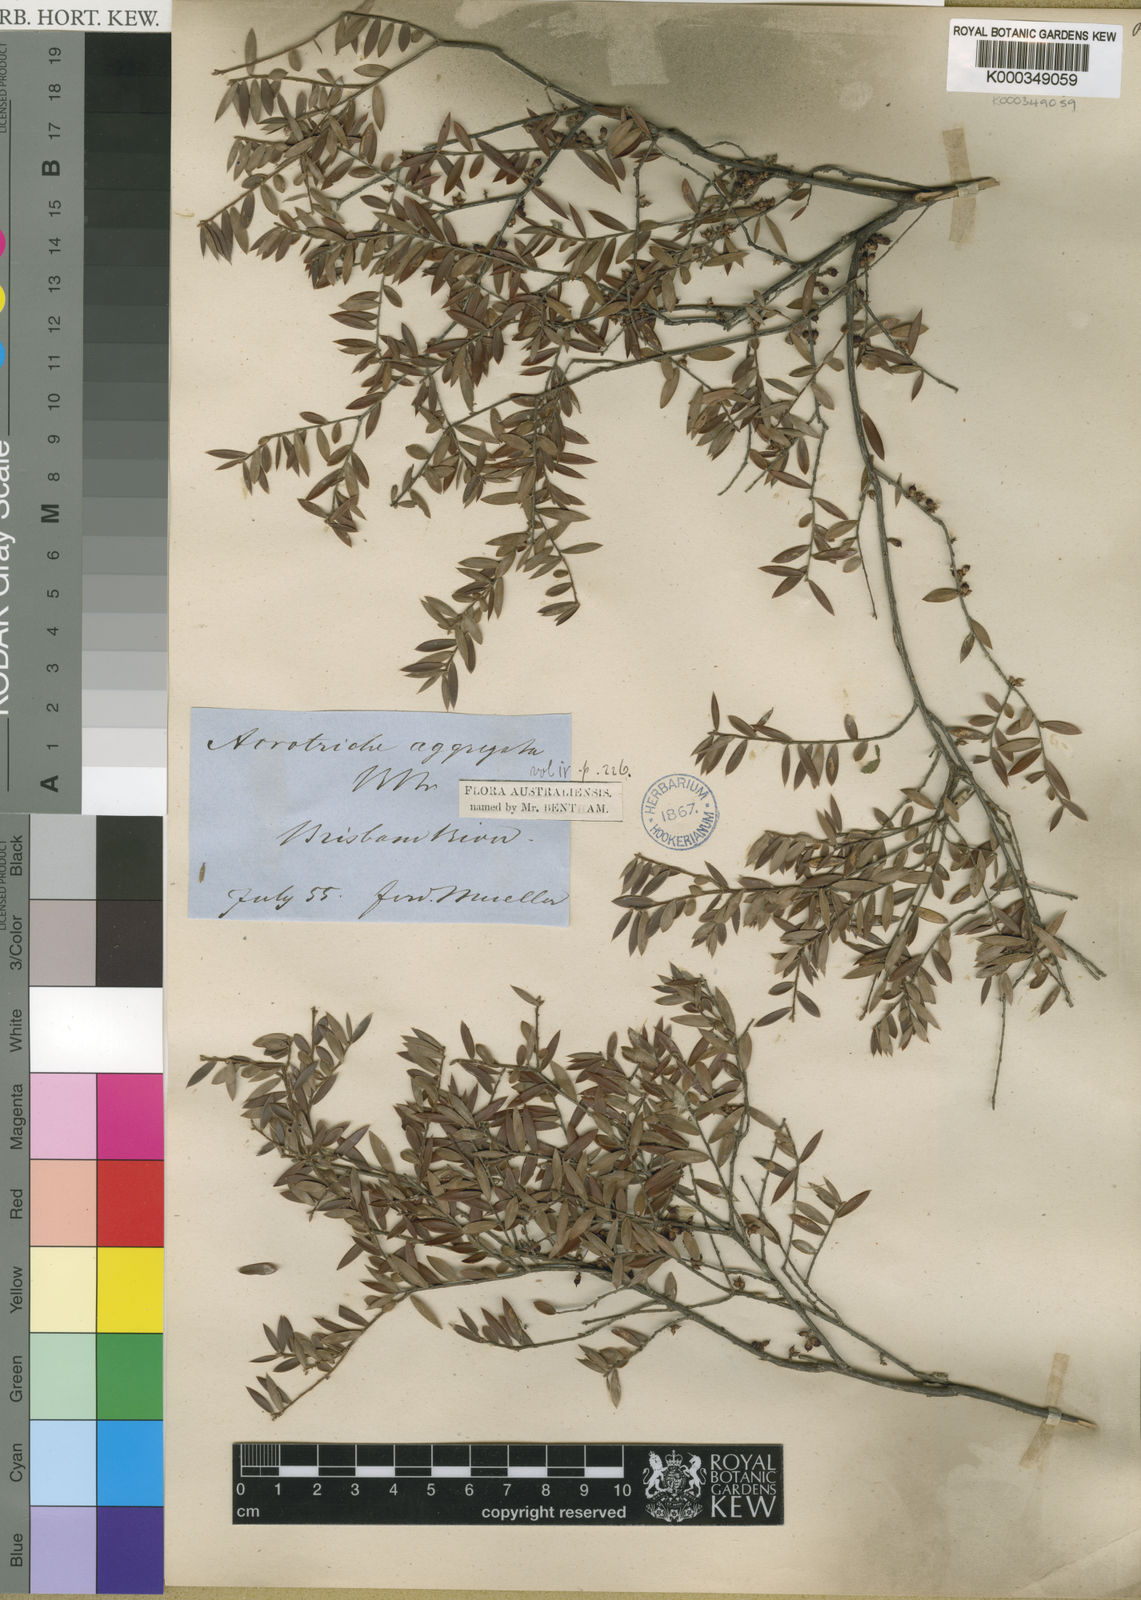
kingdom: Plantae
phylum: Tracheophyta
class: Magnoliopsida
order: Ericales
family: Ericaceae
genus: Acrotriche
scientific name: Acrotriche aggregata
